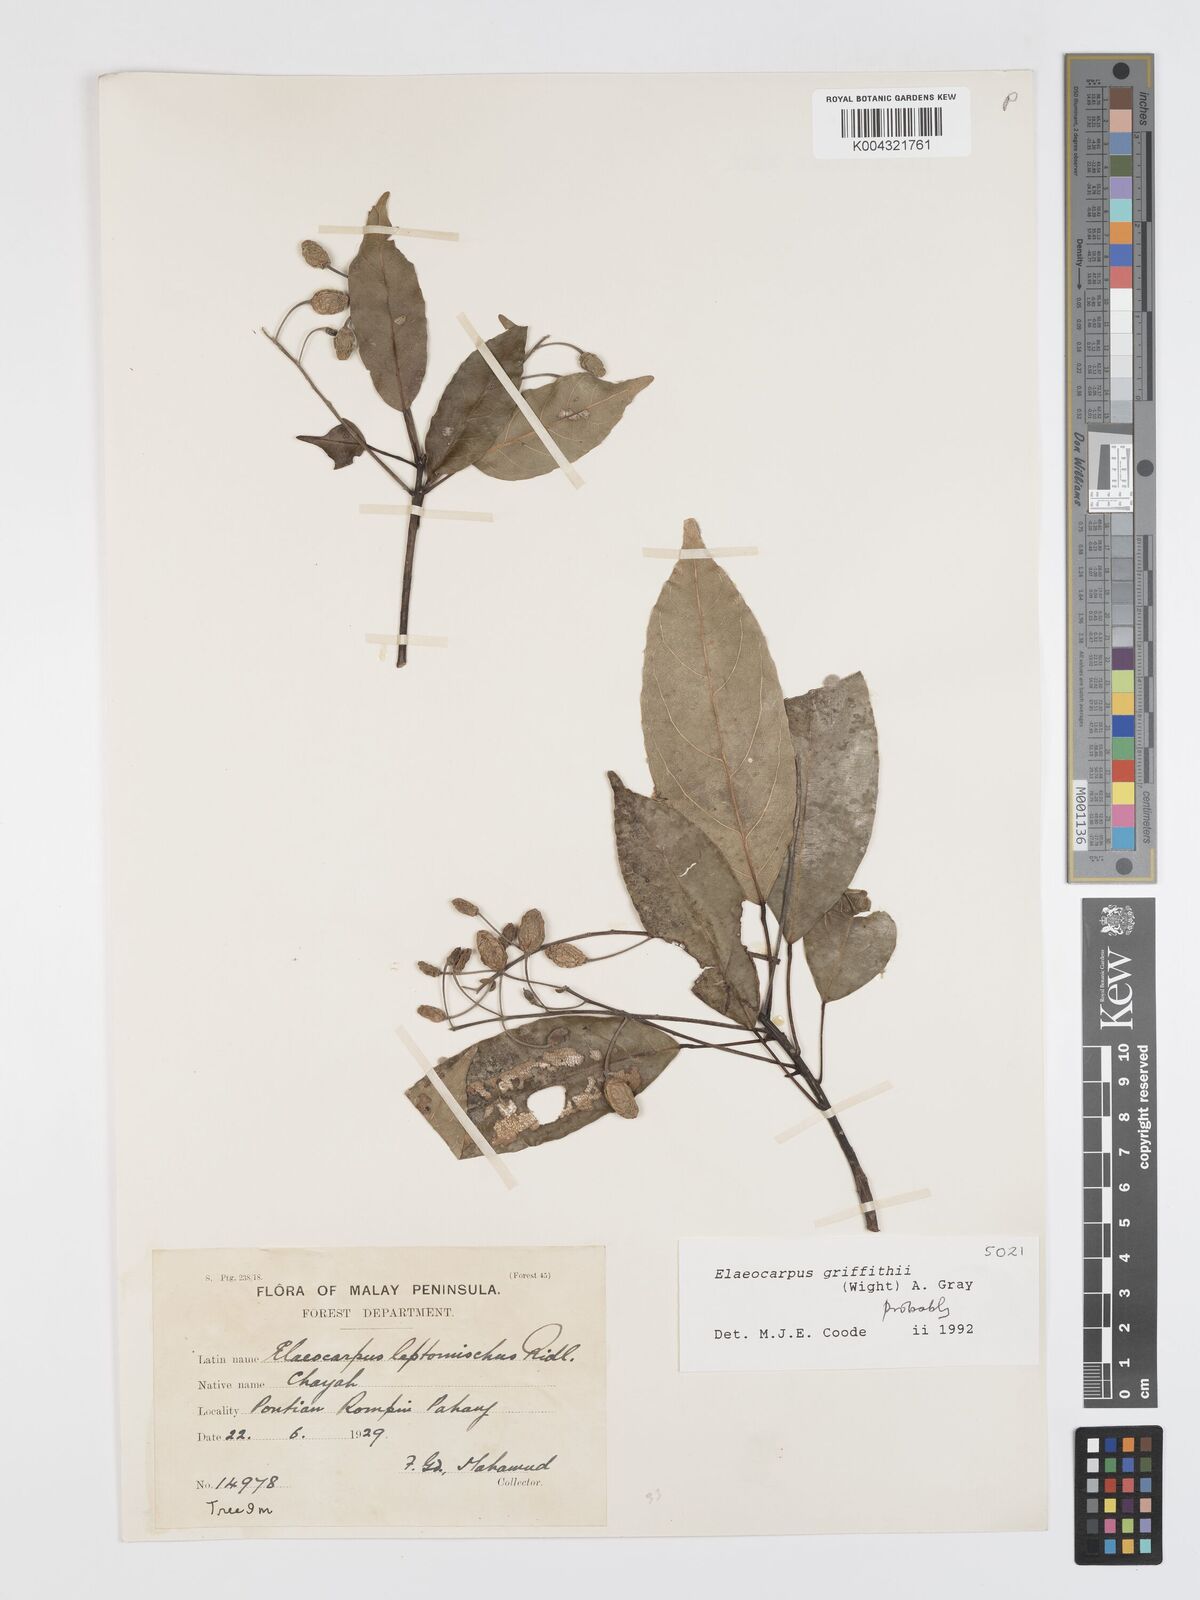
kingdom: Plantae
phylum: Tracheophyta
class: Magnoliopsida
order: Oxalidales
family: Elaeocarpaceae
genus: Elaeocarpus
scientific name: Elaeocarpus griffithii
